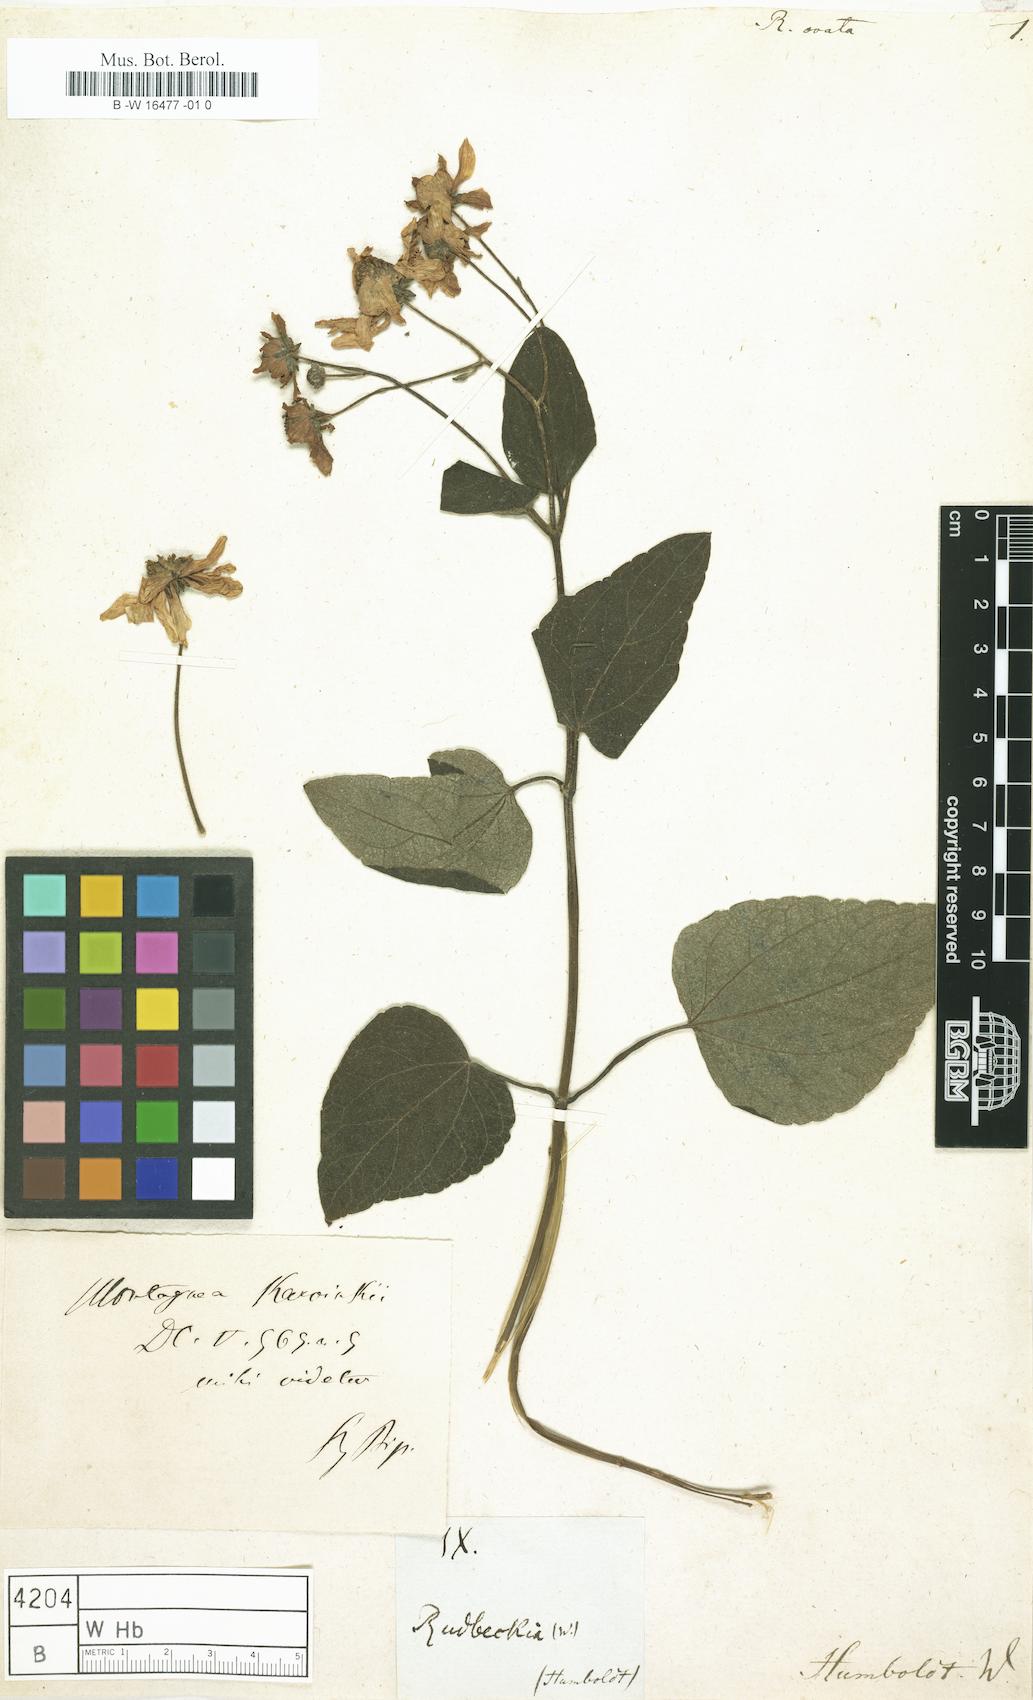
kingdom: Plantae
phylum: Tracheophyta
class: Magnoliopsida
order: Asterales
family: Asteraceae
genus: Rudbeckia
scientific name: Rudbeckia
